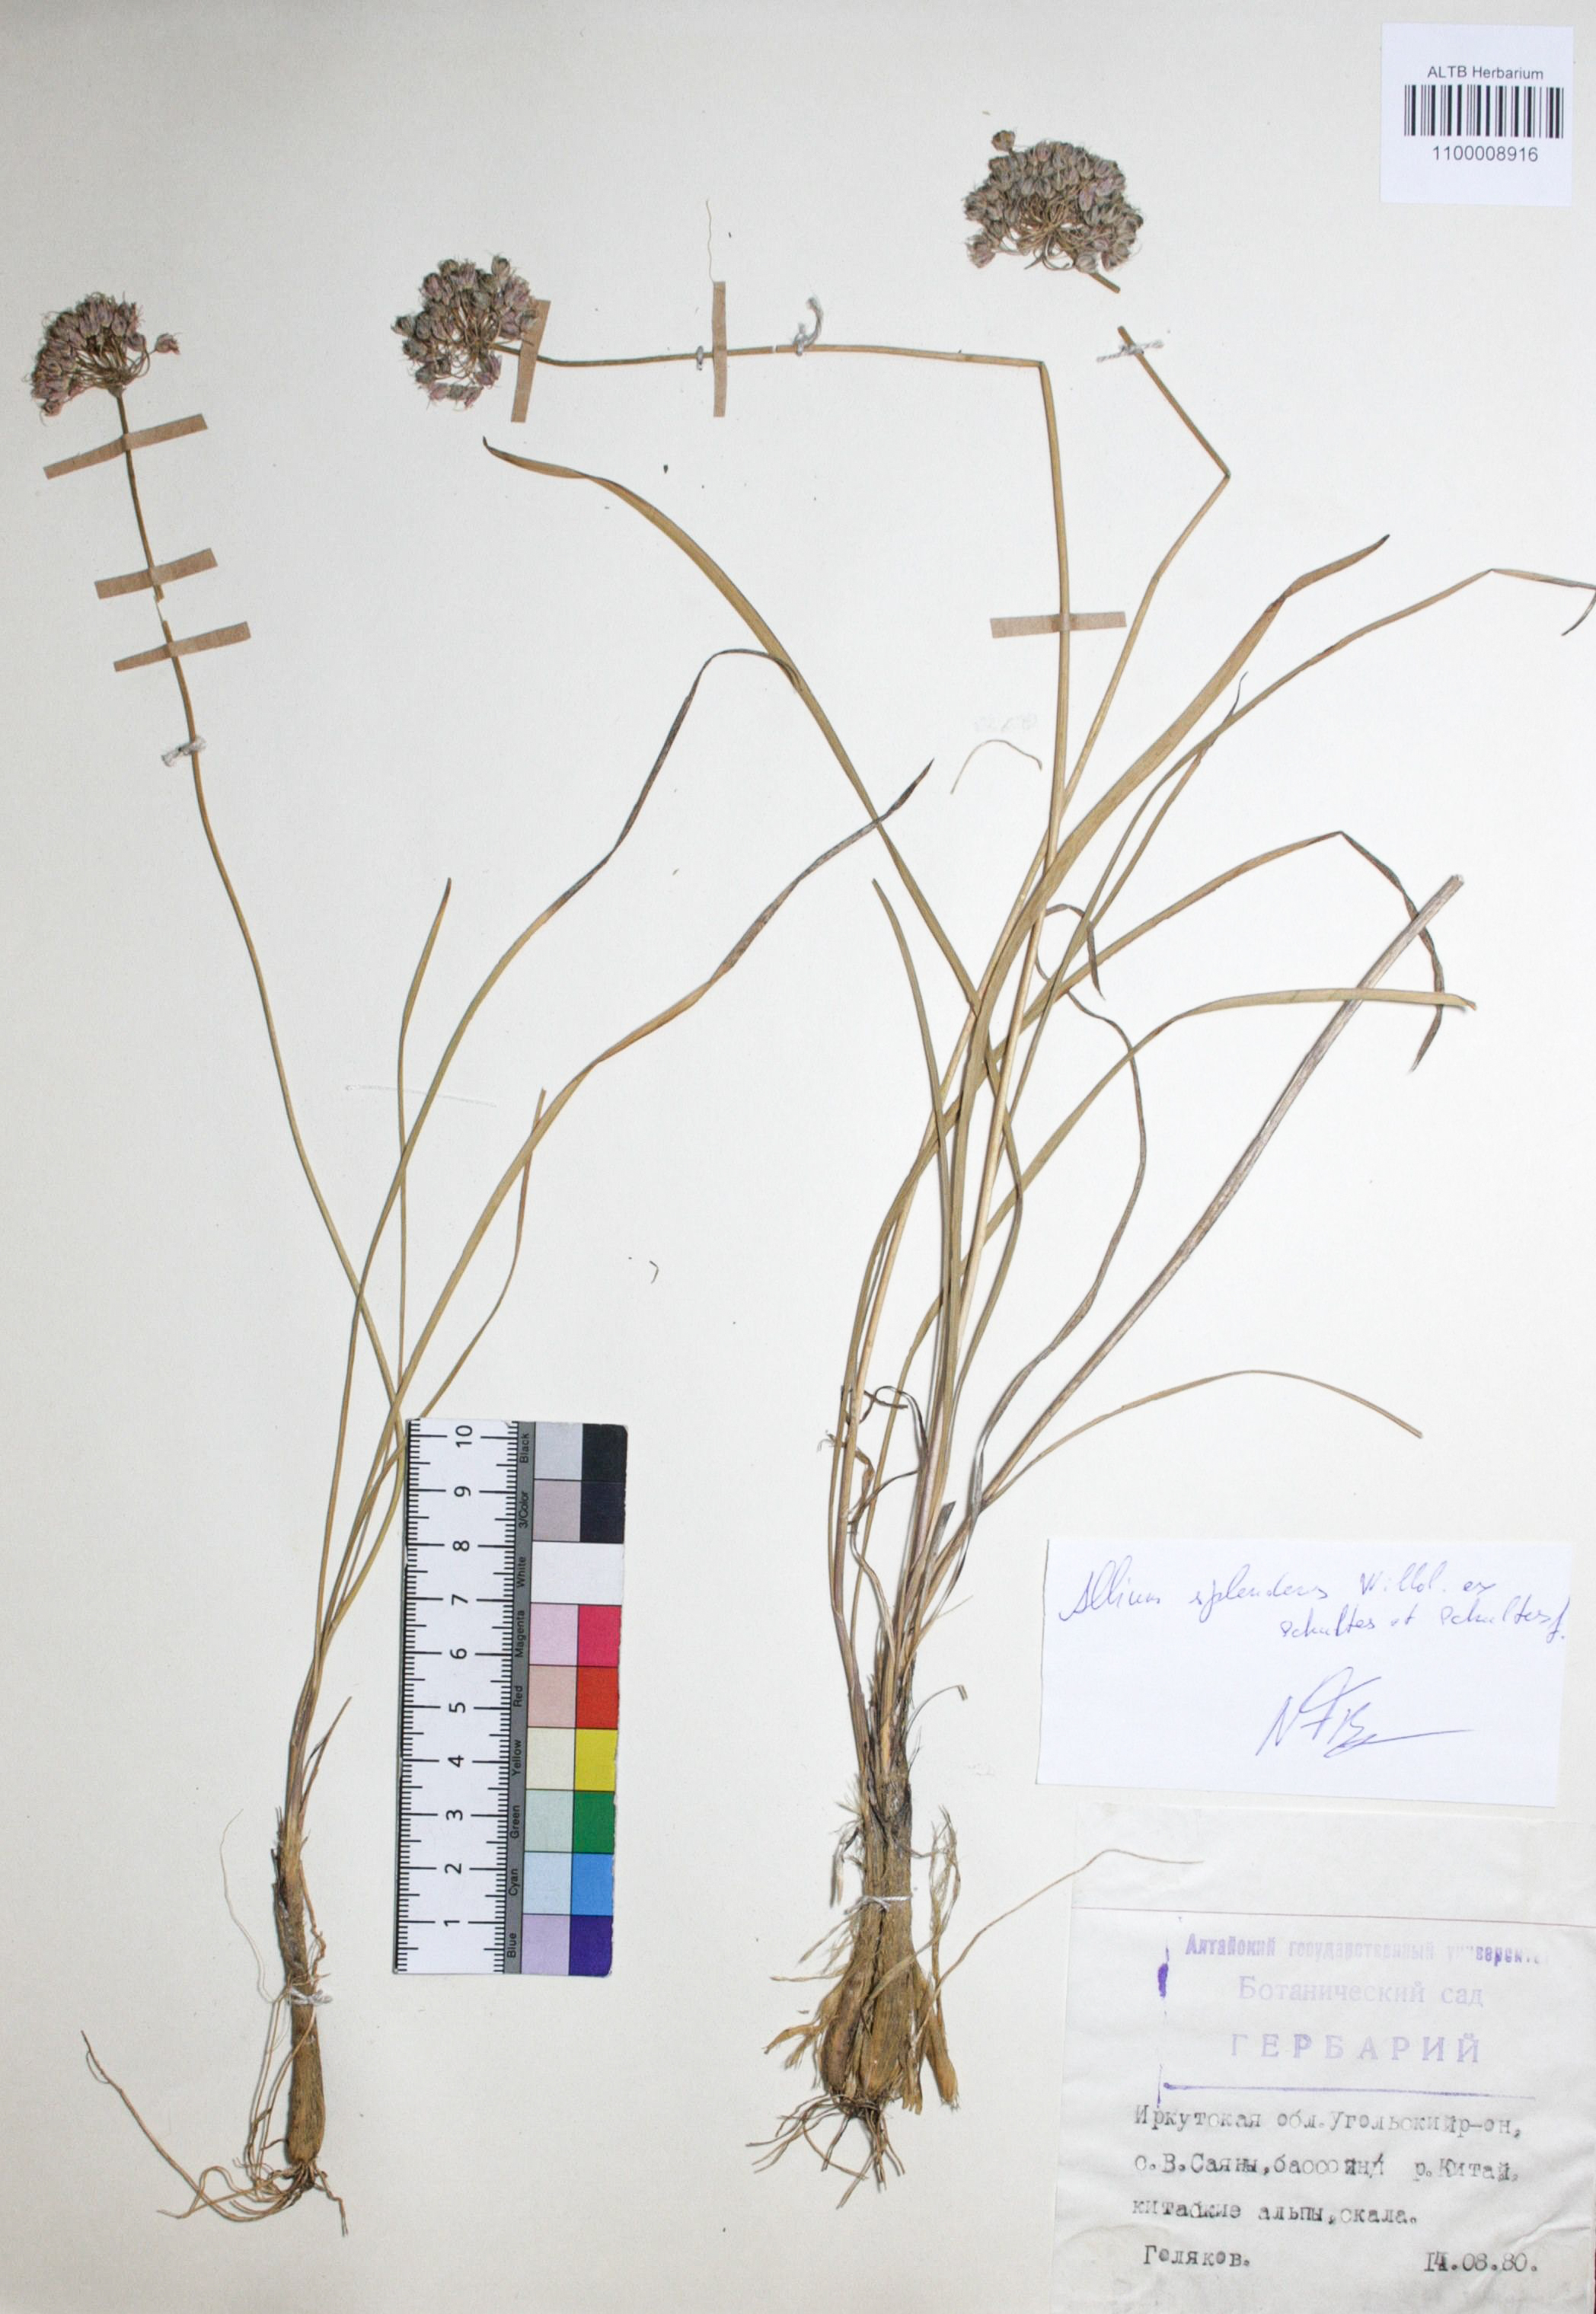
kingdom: Plantae
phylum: Tracheophyta
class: Liliopsida
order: Asparagales
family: Amaryllidaceae
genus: Allium
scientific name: Allium splendens
